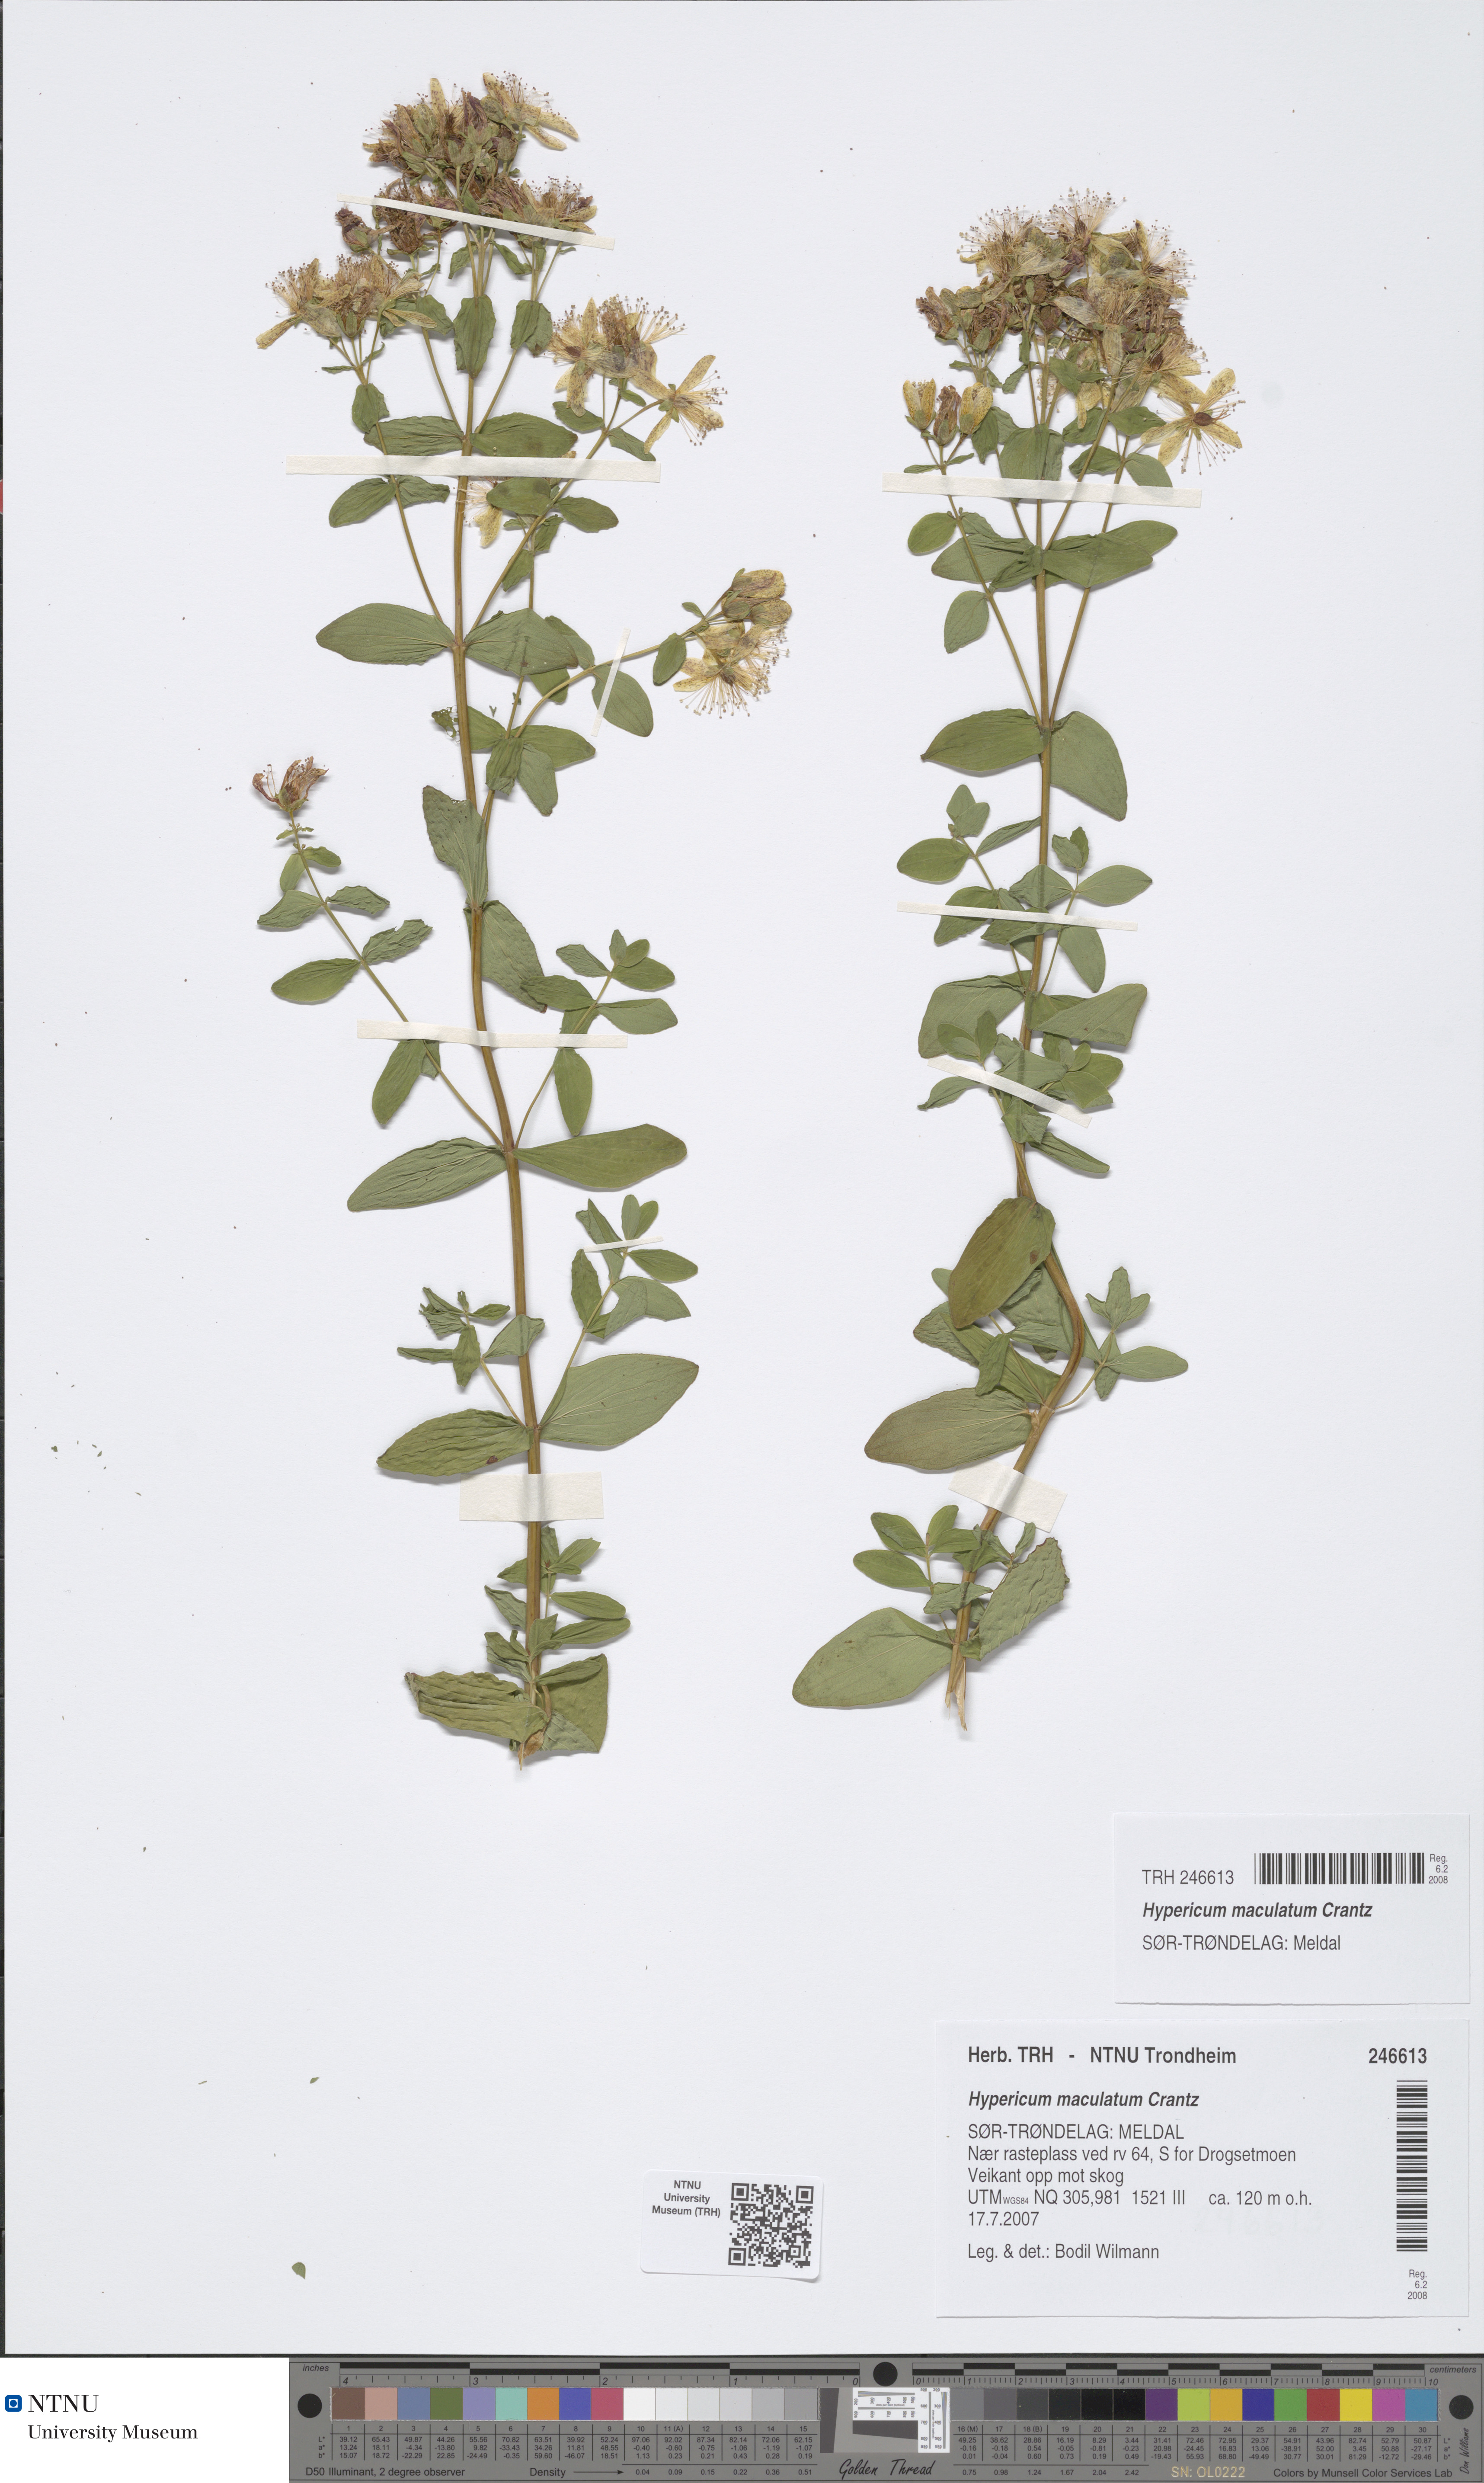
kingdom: Plantae
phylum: Tracheophyta
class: Magnoliopsida
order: Malpighiales
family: Hypericaceae
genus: Hypericum
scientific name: Hypericum maculatum
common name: Imperforate st. john's-wort
